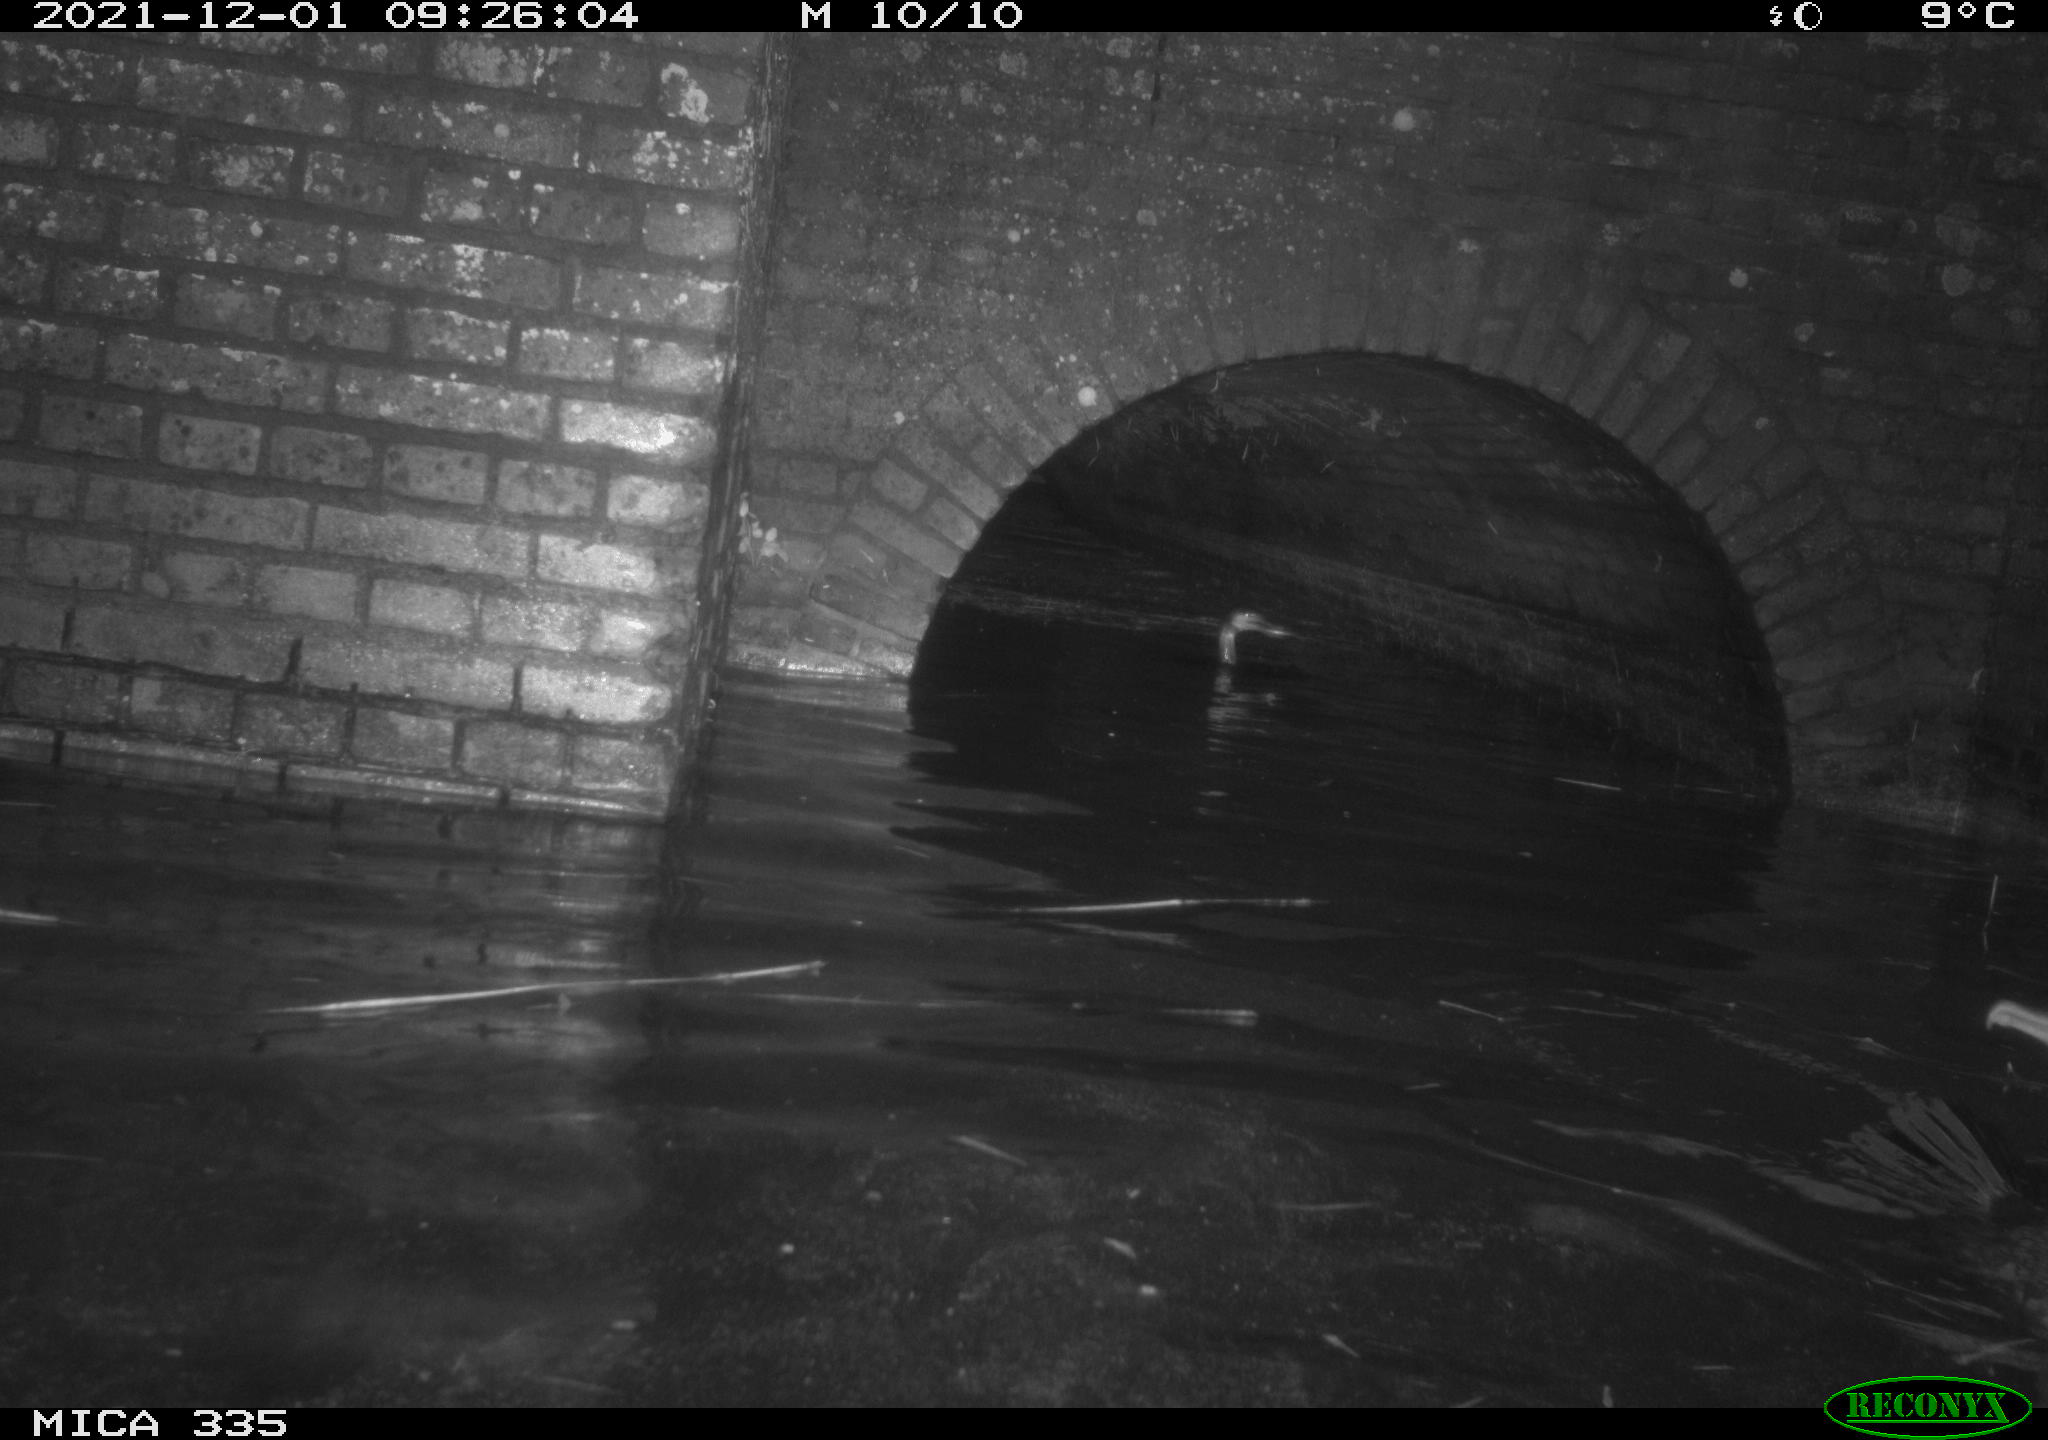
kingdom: Animalia
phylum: Chordata
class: Aves
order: Anseriformes
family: Anatidae
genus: Anas
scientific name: Anas platyrhynchos
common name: Mallard
